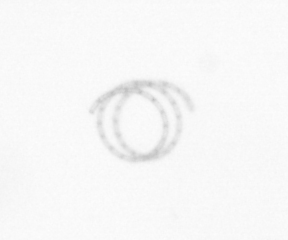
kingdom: Chromista
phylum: Ochrophyta
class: Bacillariophyceae
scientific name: Bacillariophyceae
